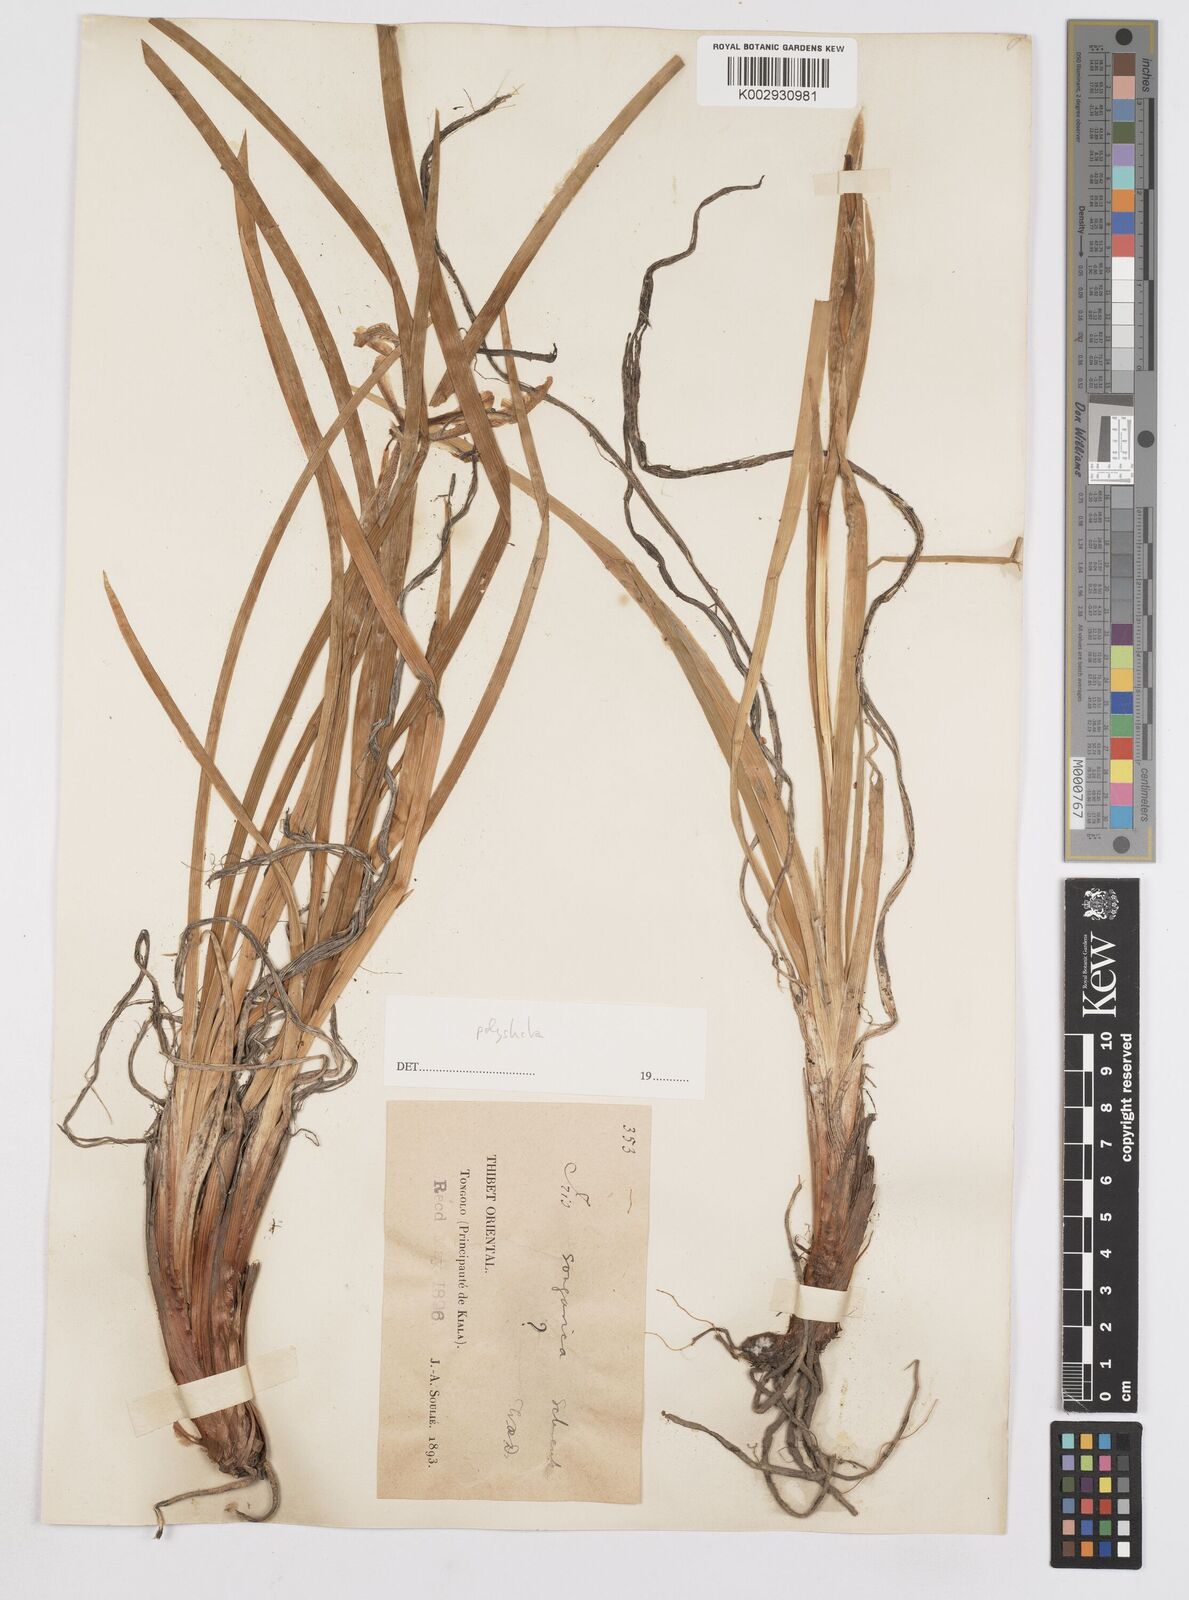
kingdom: Plantae
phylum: Tracheophyta
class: Liliopsida
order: Asparagales
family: Iridaceae
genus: Iris
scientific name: Iris farreri
